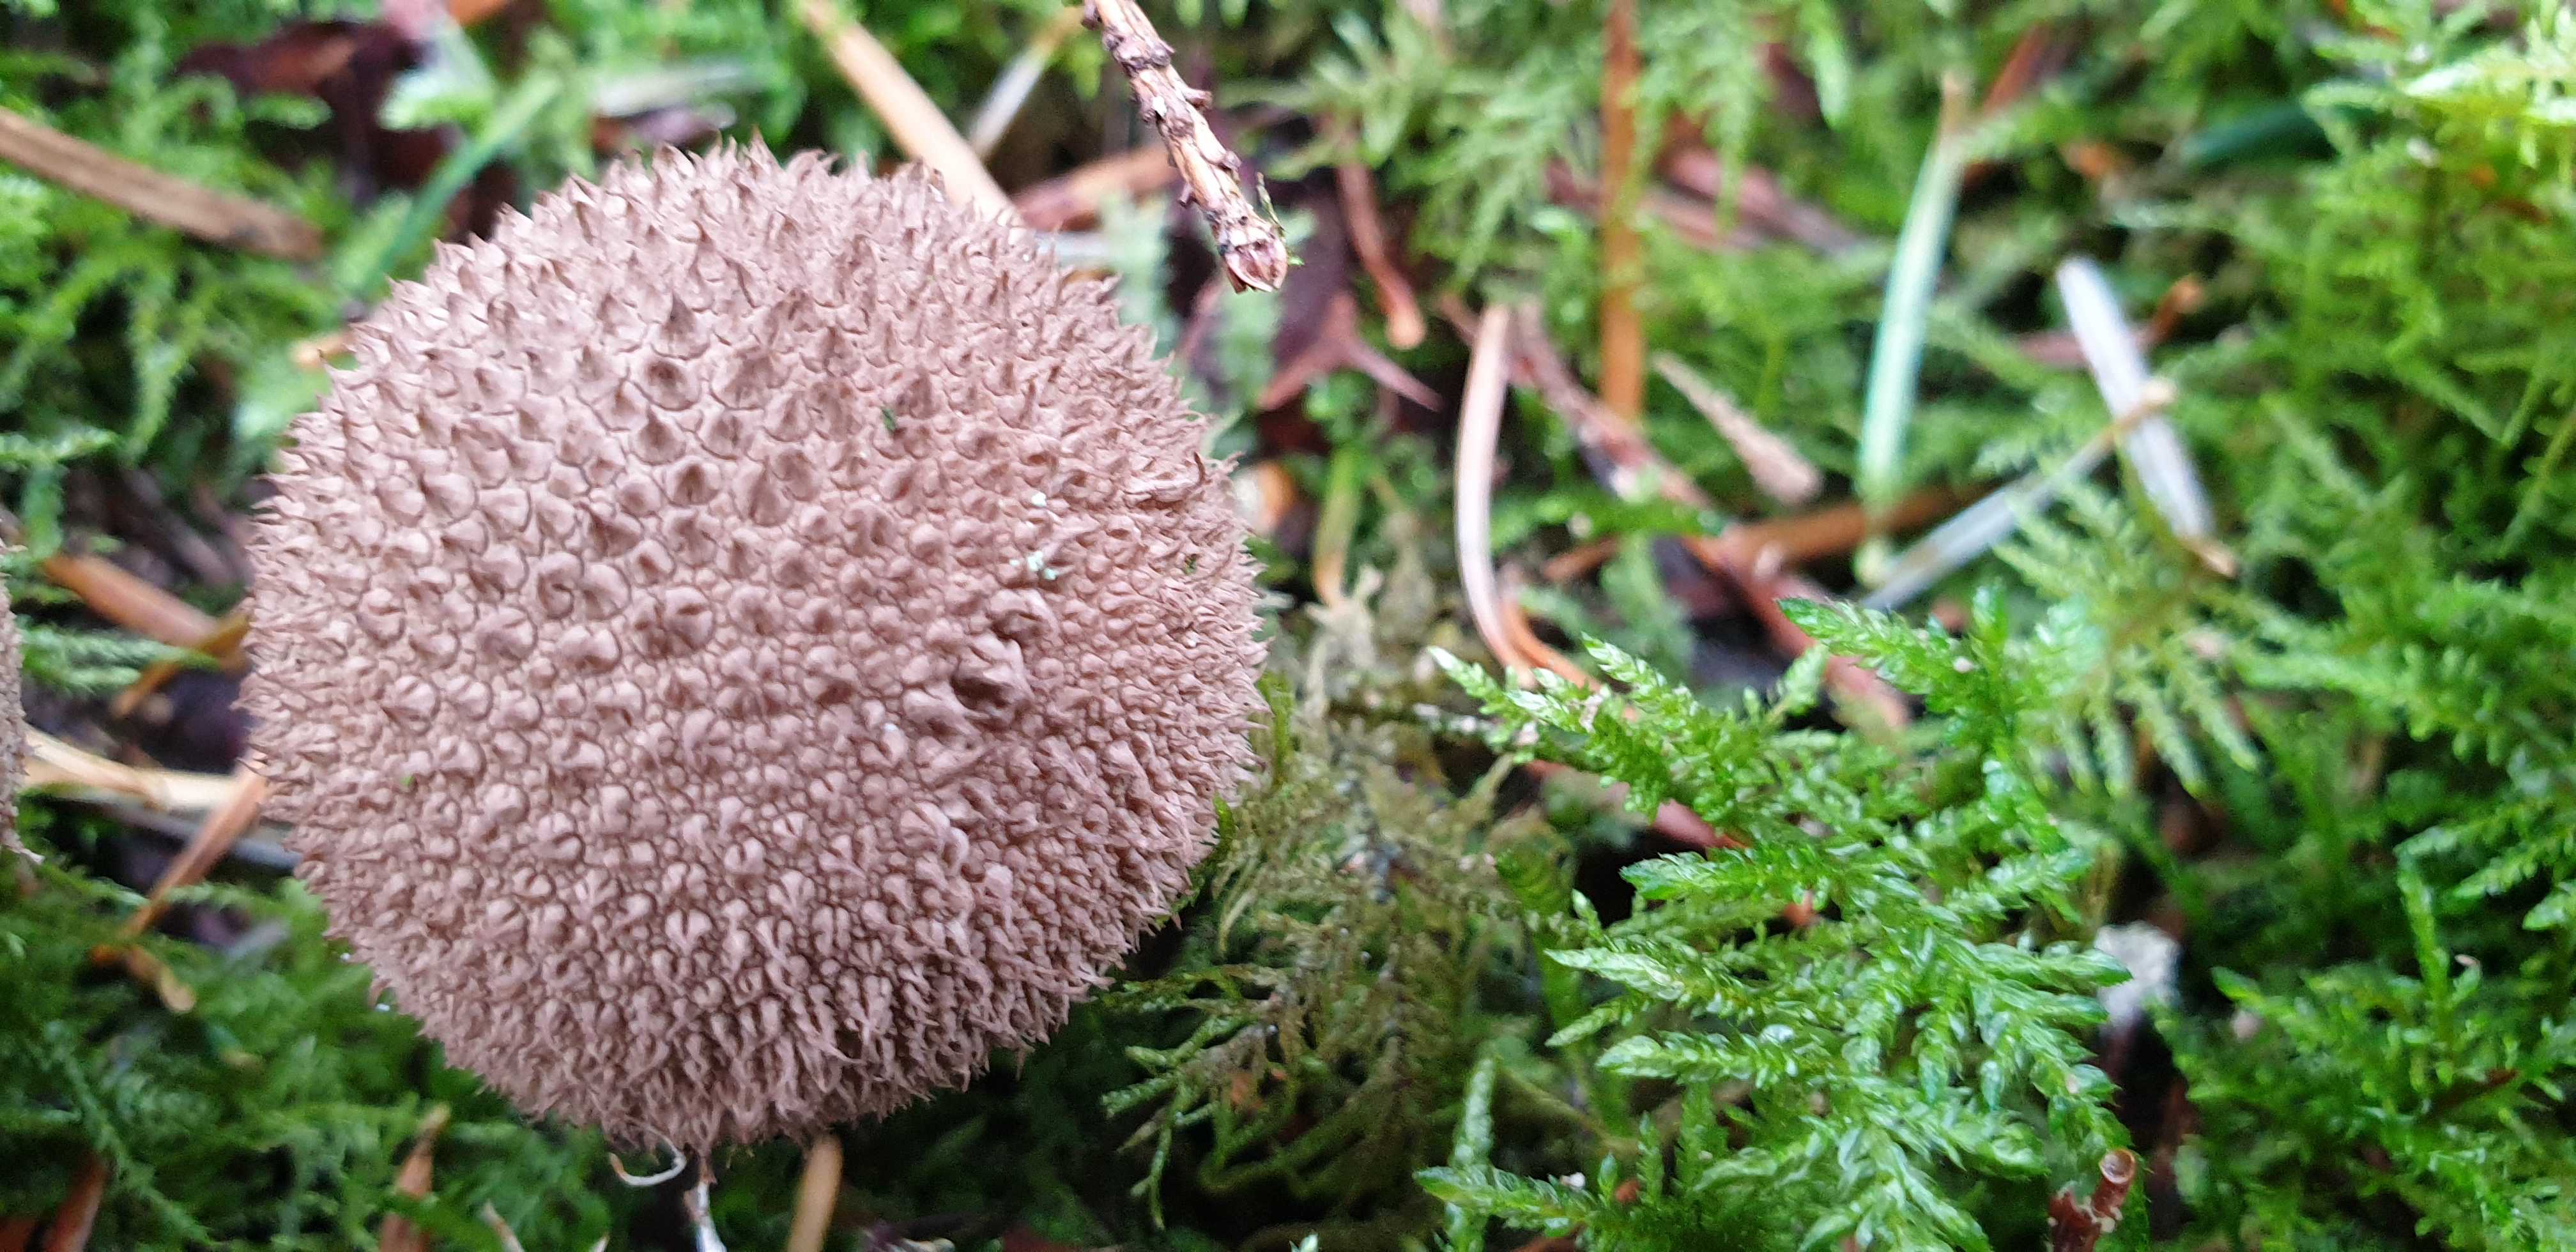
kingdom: Fungi
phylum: Basidiomycota
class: Agaricomycetes
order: Agaricales
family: Lycoperdaceae
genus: Lycoperdon
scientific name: Lycoperdon perlatum
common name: krystal-støvbold
